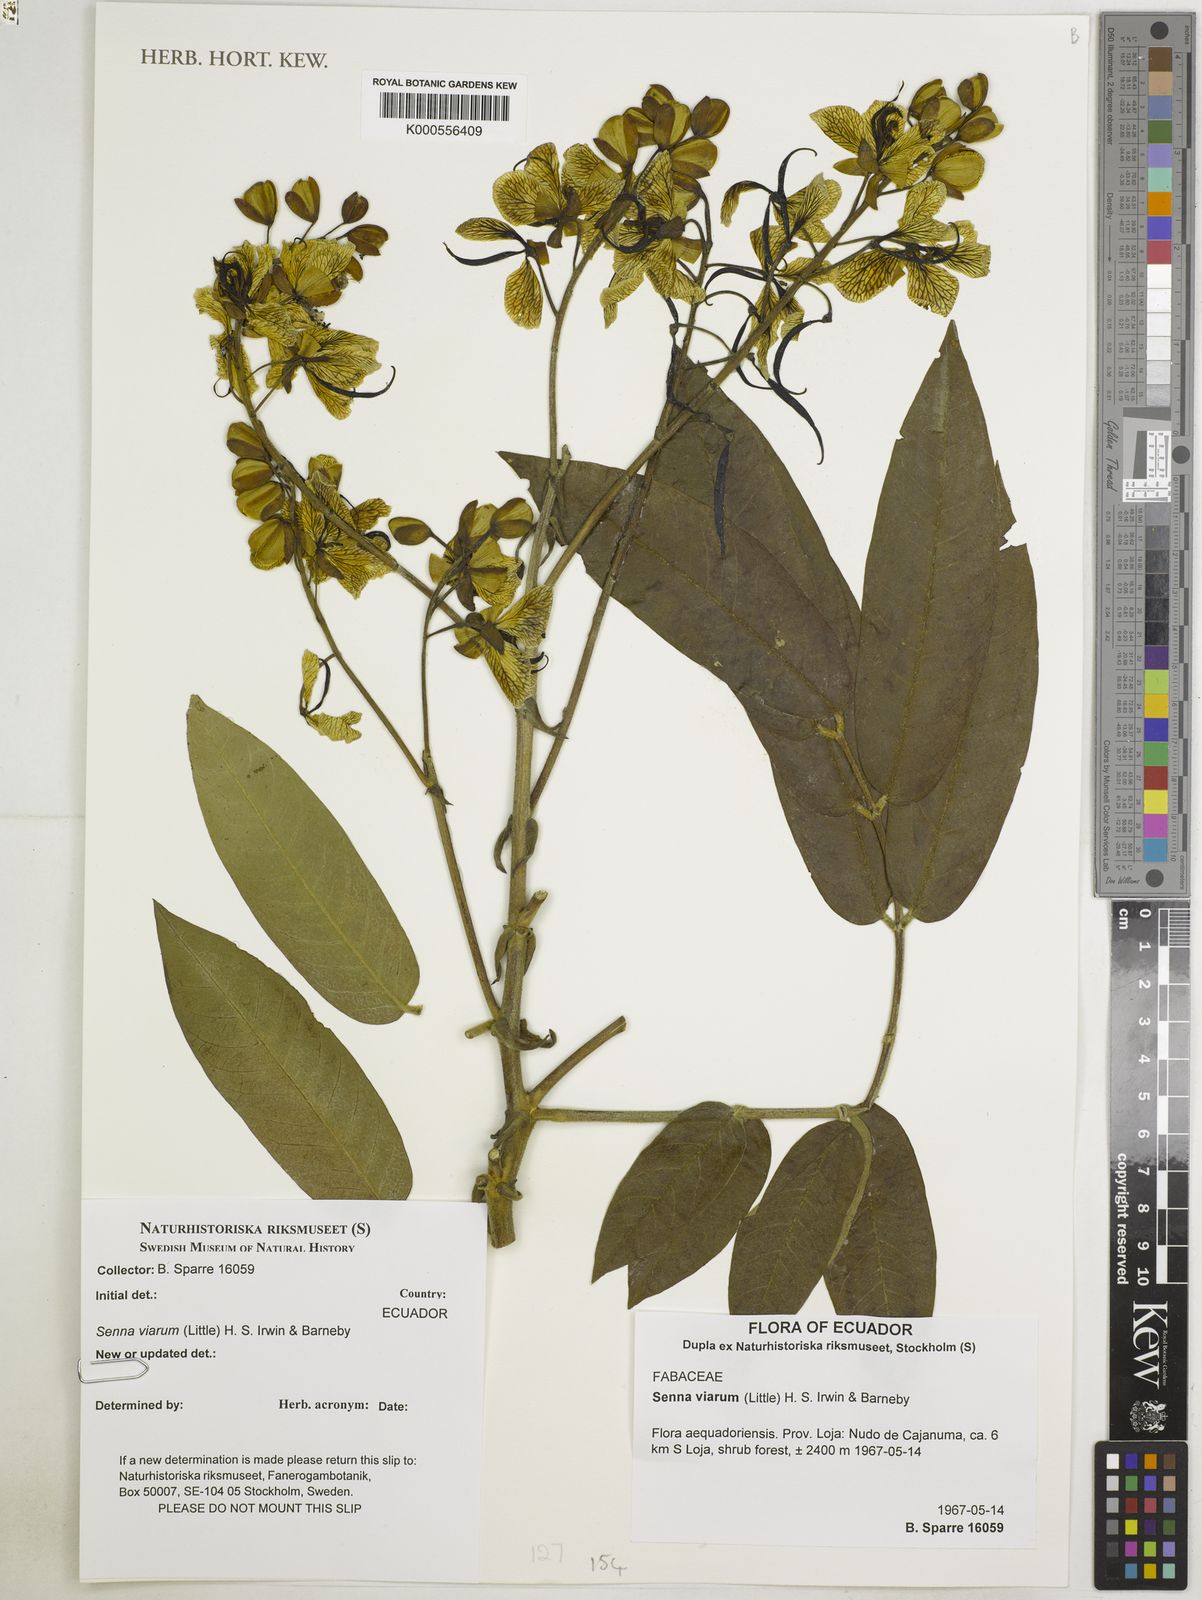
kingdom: Plantae
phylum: Tracheophyta
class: Magnoliopsida
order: Fabales
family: Fabaceae
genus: Senna
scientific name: Senna viarum
